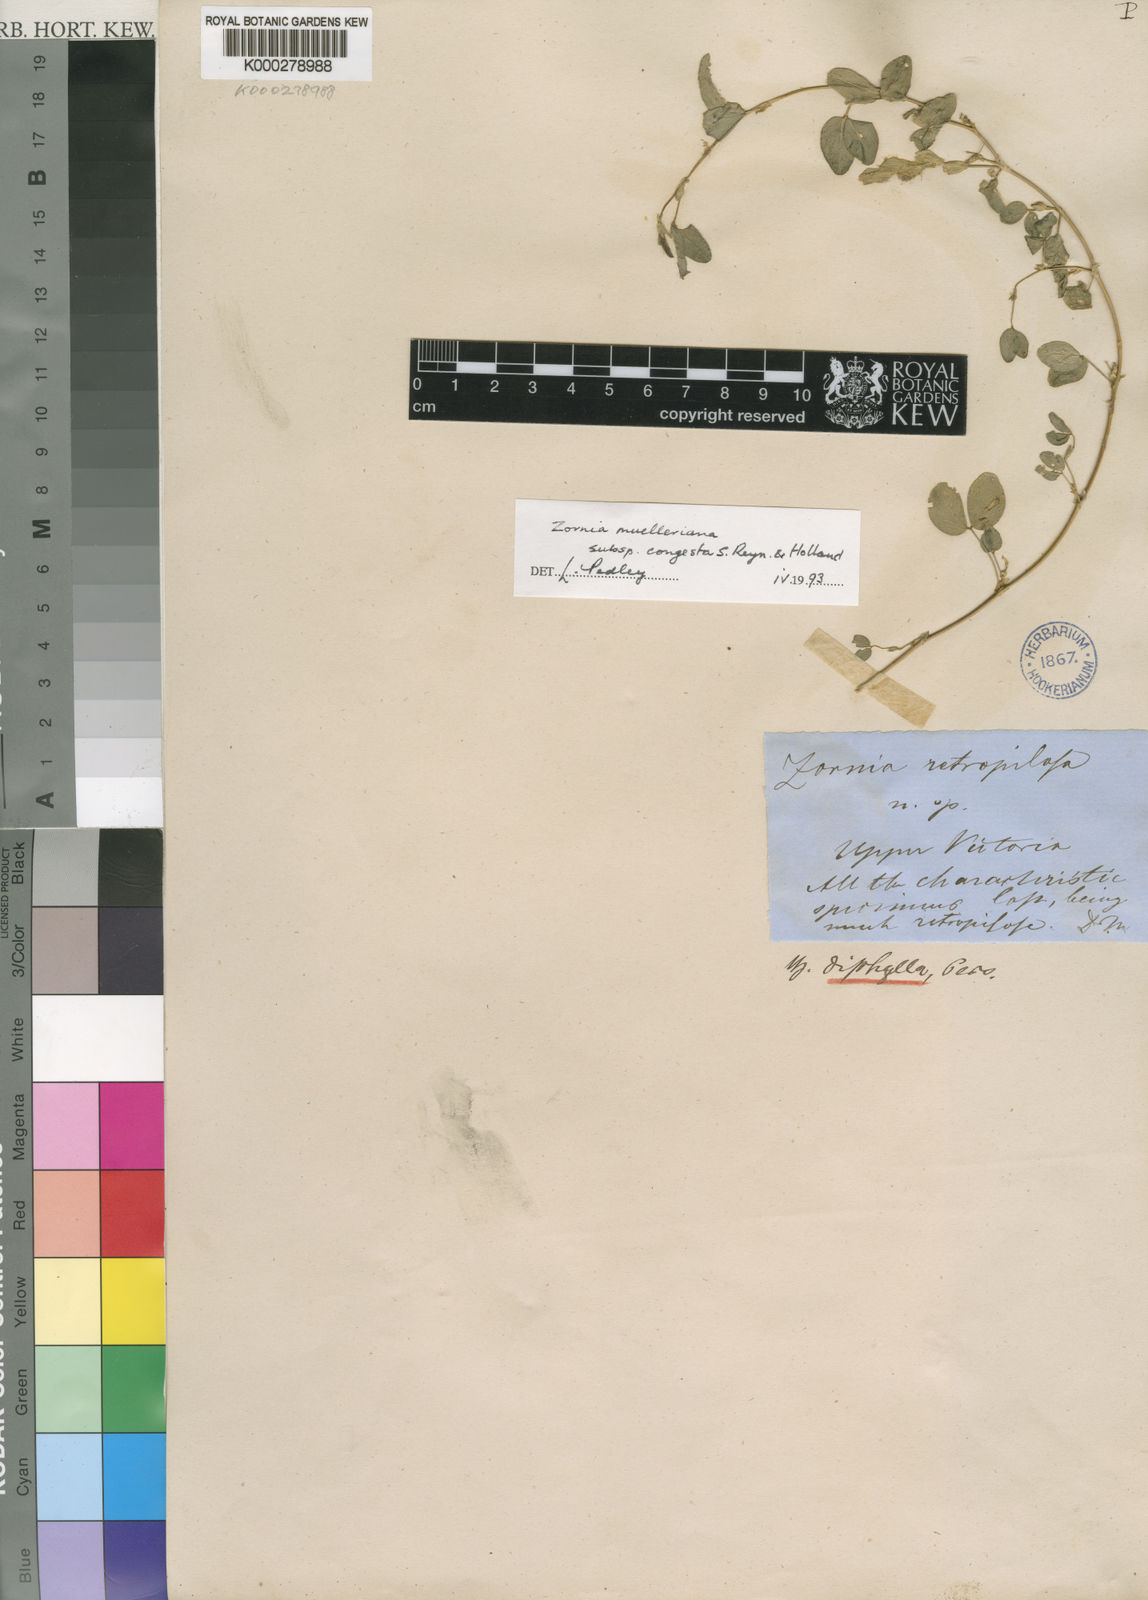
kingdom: Plantae
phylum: Tracheophyta
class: Magnoliopsida
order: Fabales
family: Fabaceae
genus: Zornia
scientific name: Zornia muelleriana
